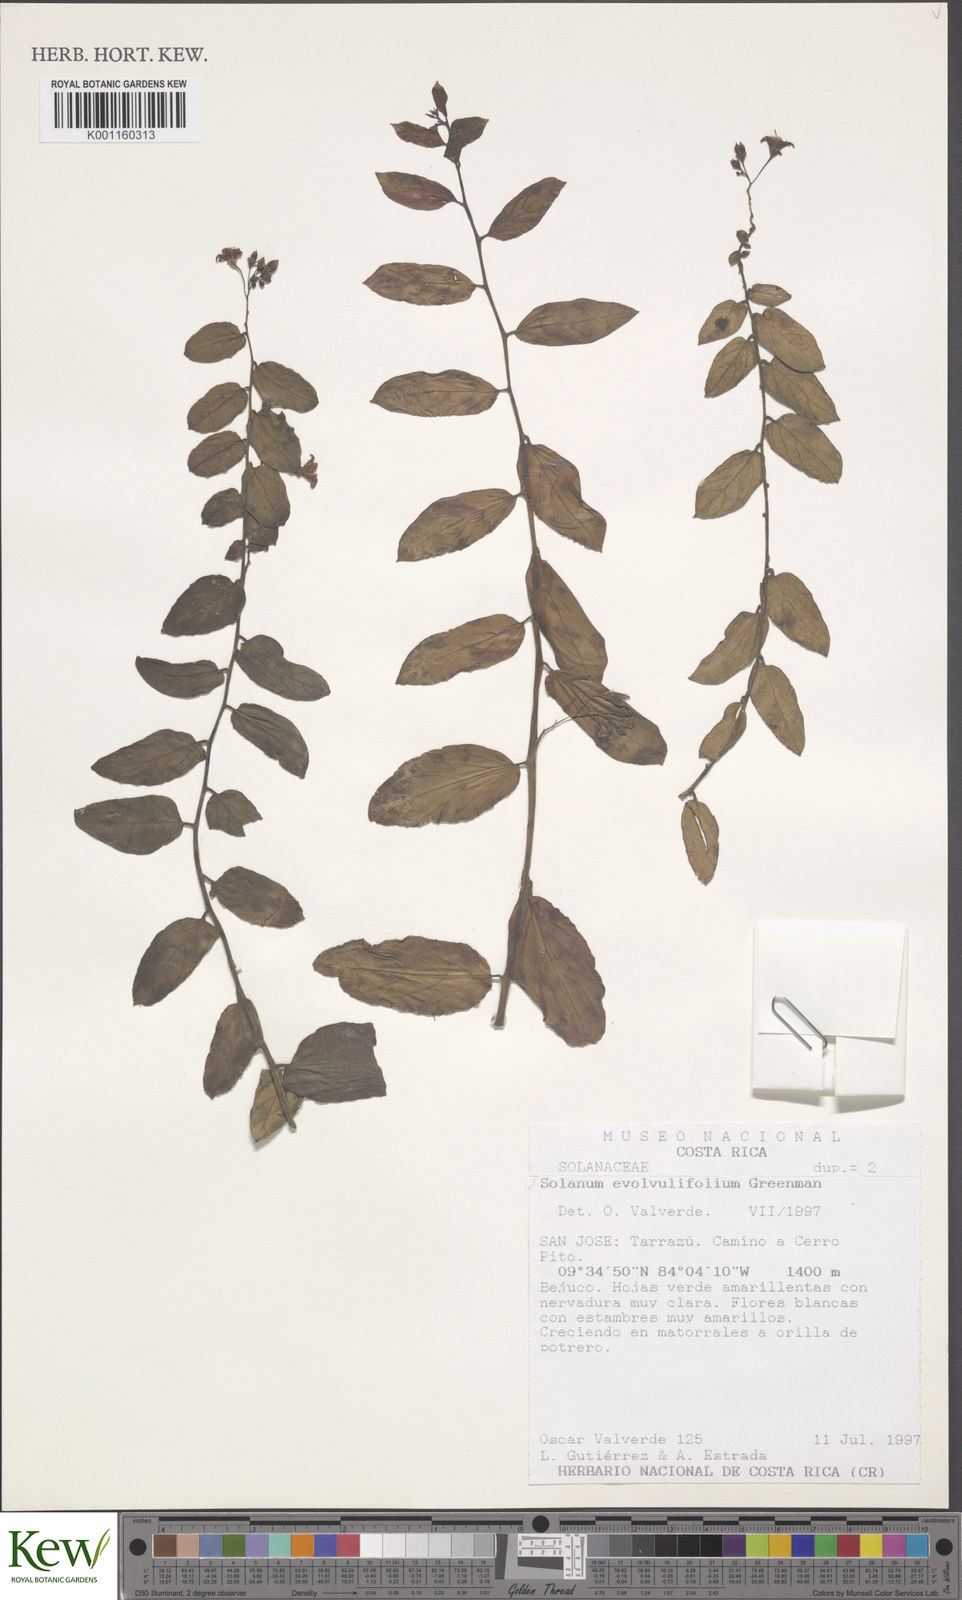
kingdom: Plantae
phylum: Tracheophyta
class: Magnoliopsida
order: Solanales
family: Solanaceae
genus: Solanum
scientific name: Solanum evolvulifolium
